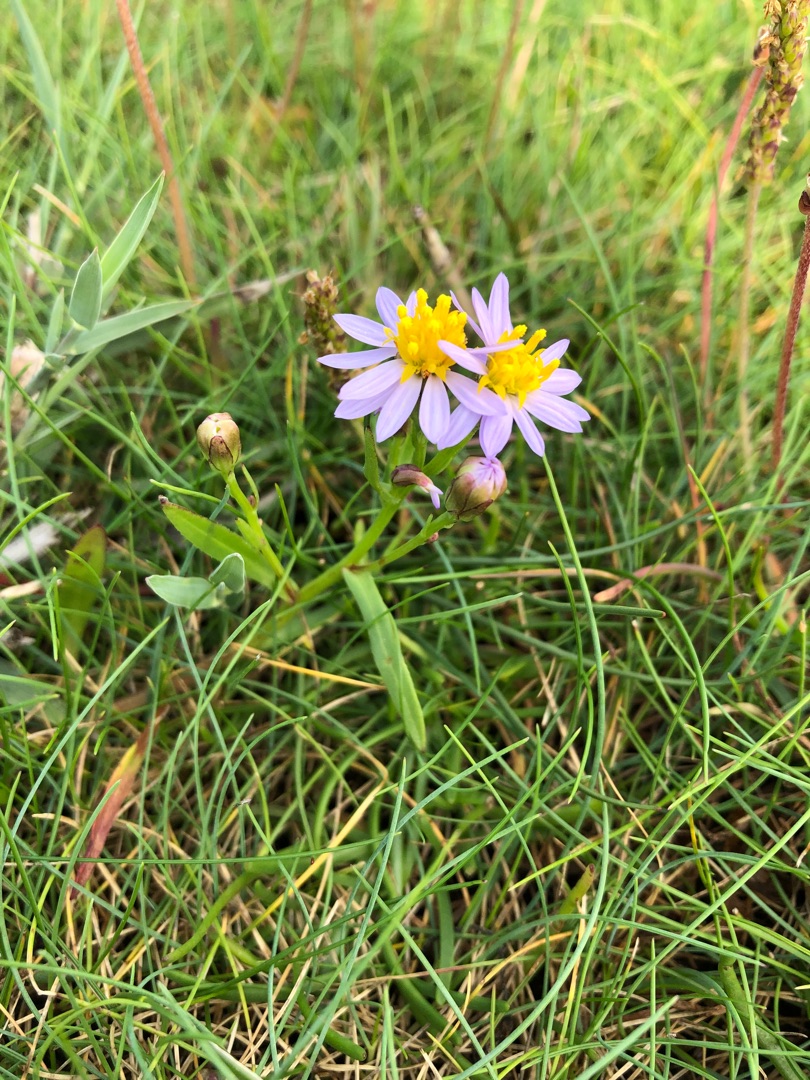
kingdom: Plantae
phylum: Tracheophyta
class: Magnoliopsida
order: Asterales
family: Asteraceae
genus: Tripolium
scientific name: Tripolium pannonicum
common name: Strandasters
